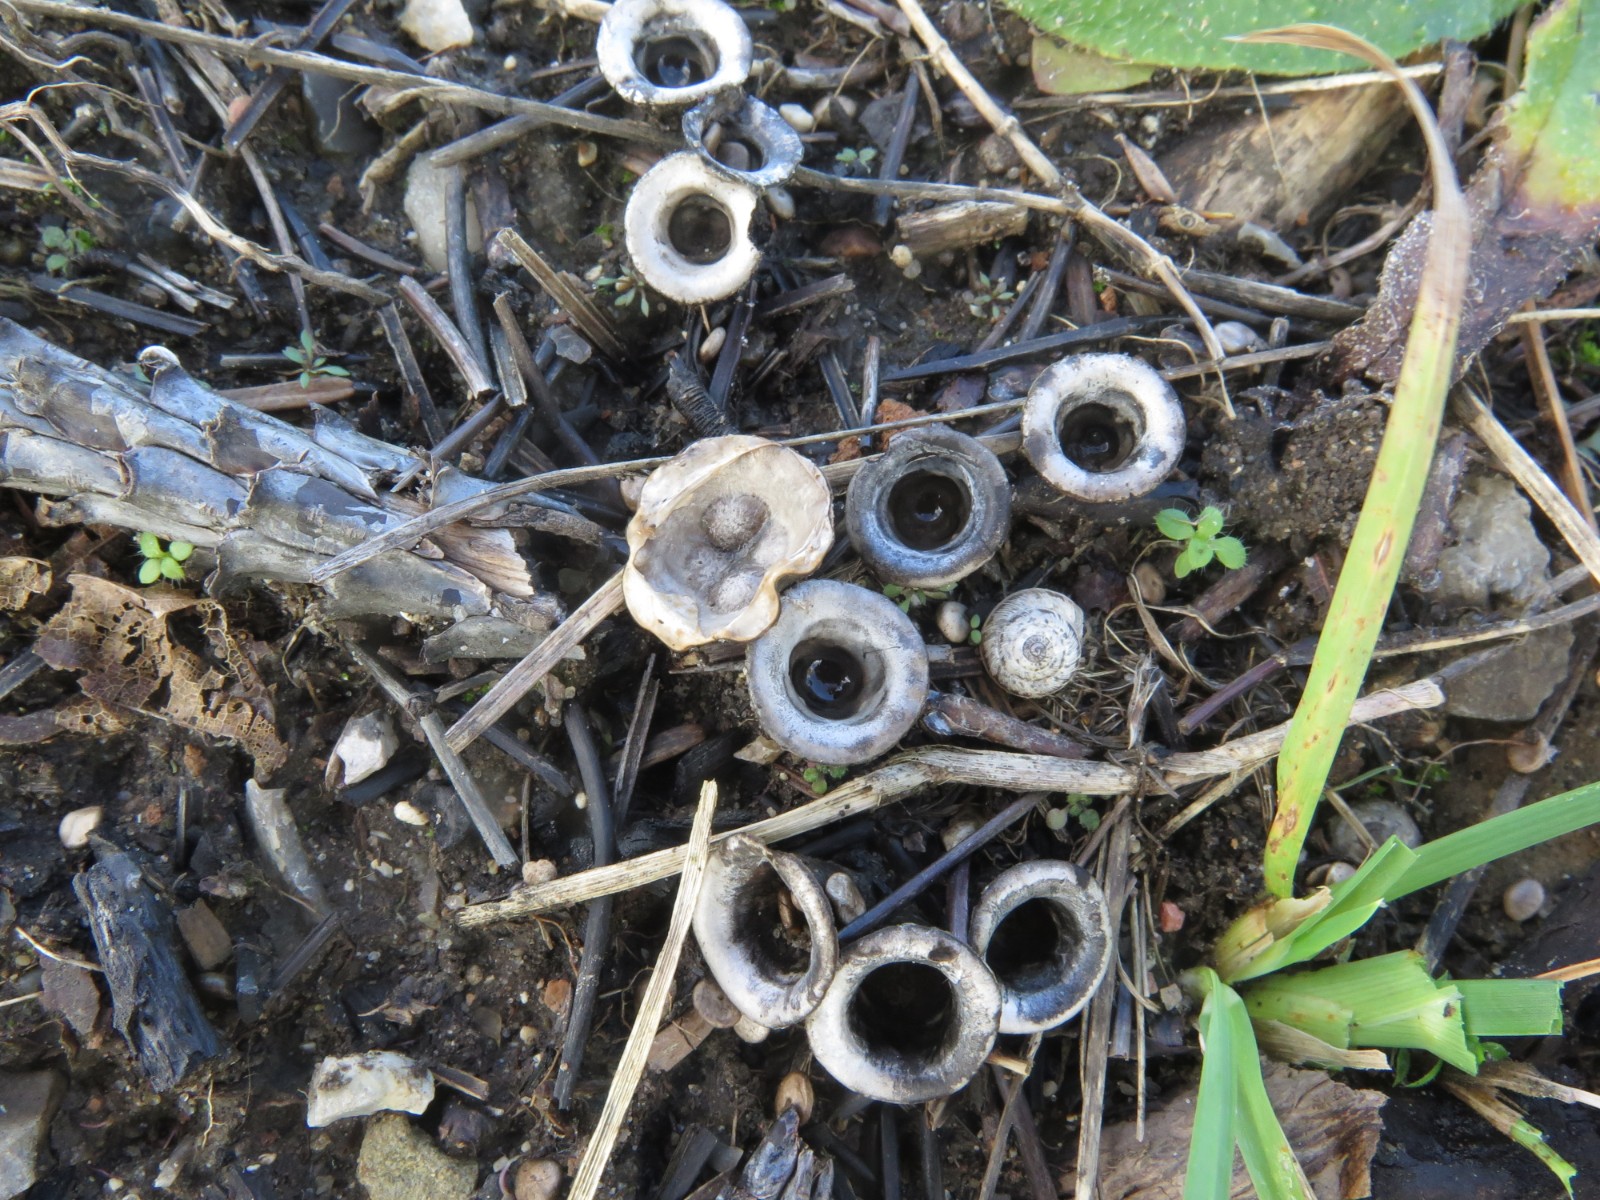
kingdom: Fungi
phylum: Basidiomycota
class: Agaricomycetes
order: Agaricales
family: Agaricaceae
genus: Cyathus
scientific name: Cyathus olla
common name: klokke-redesvamp
